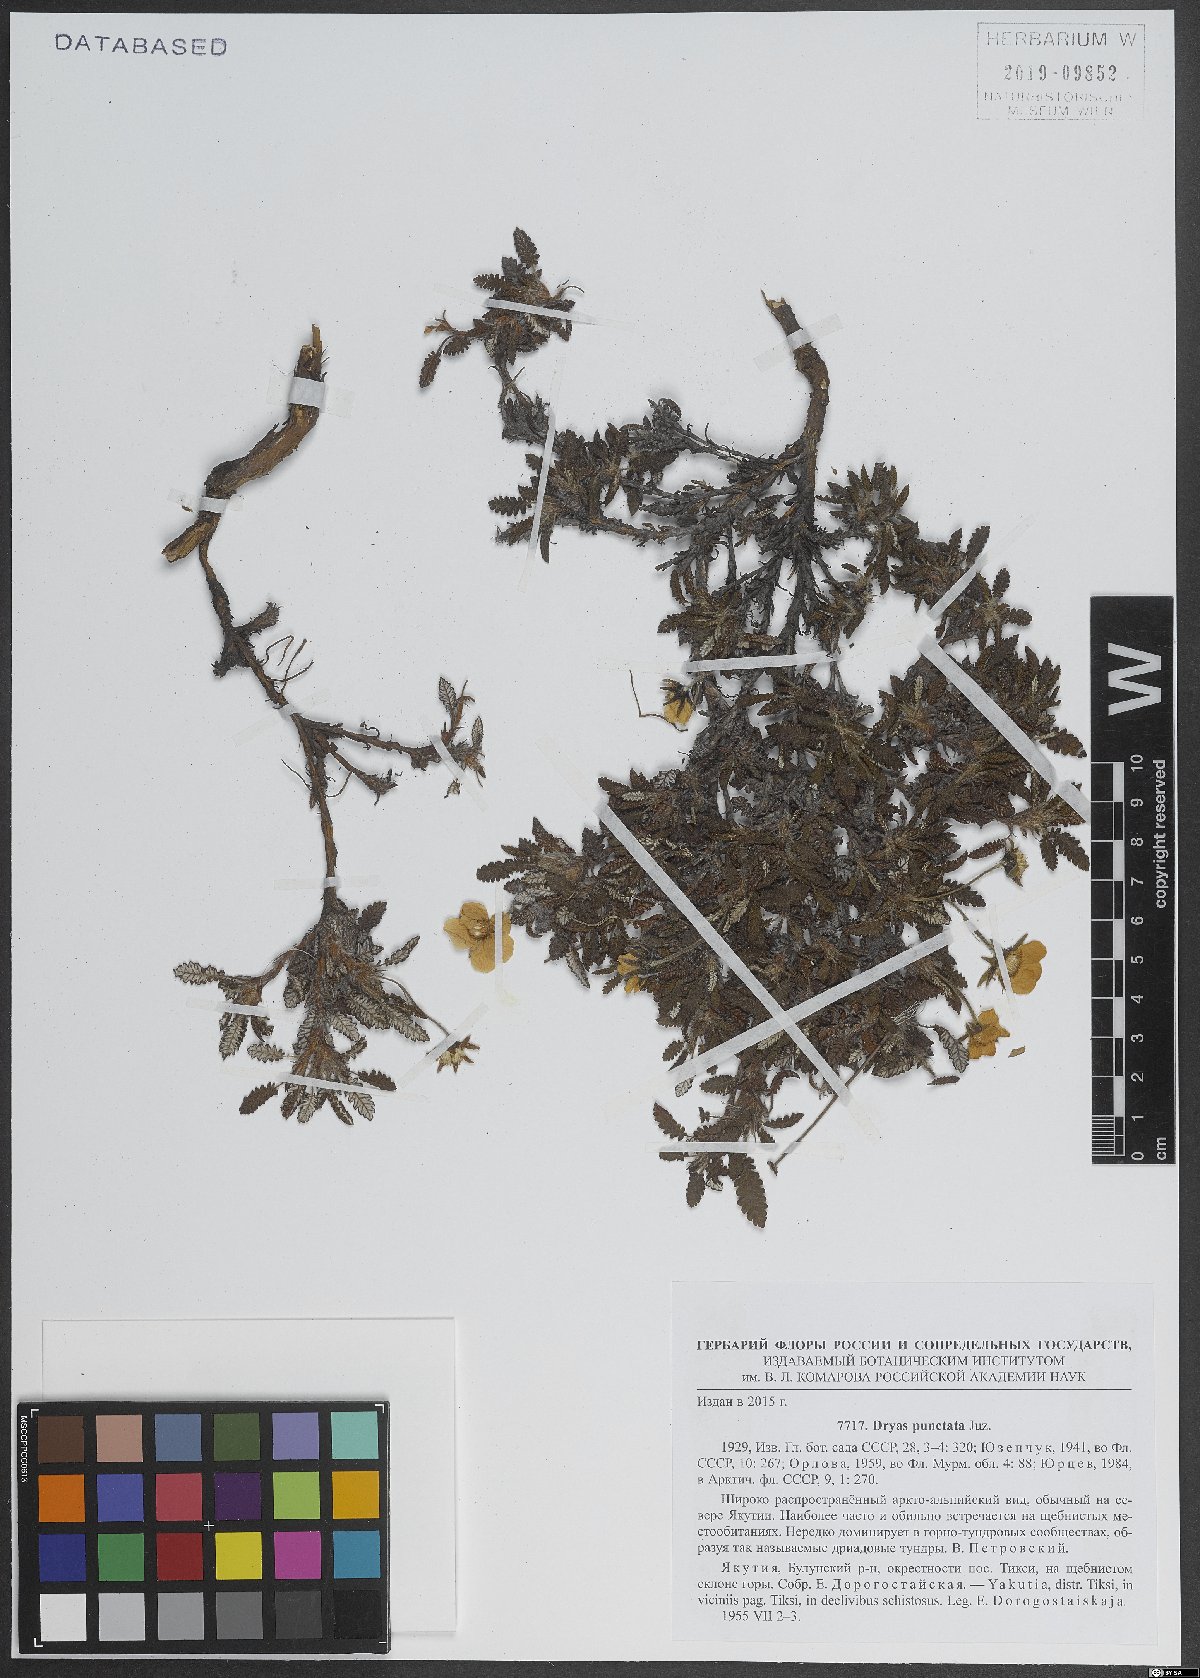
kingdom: Plantae
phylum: Tracheophyta
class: Magnoliopsida
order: Rosales
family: Rosaceae
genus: Dryas
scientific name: Dryas octopetala
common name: Eight-petal mountain-avens
